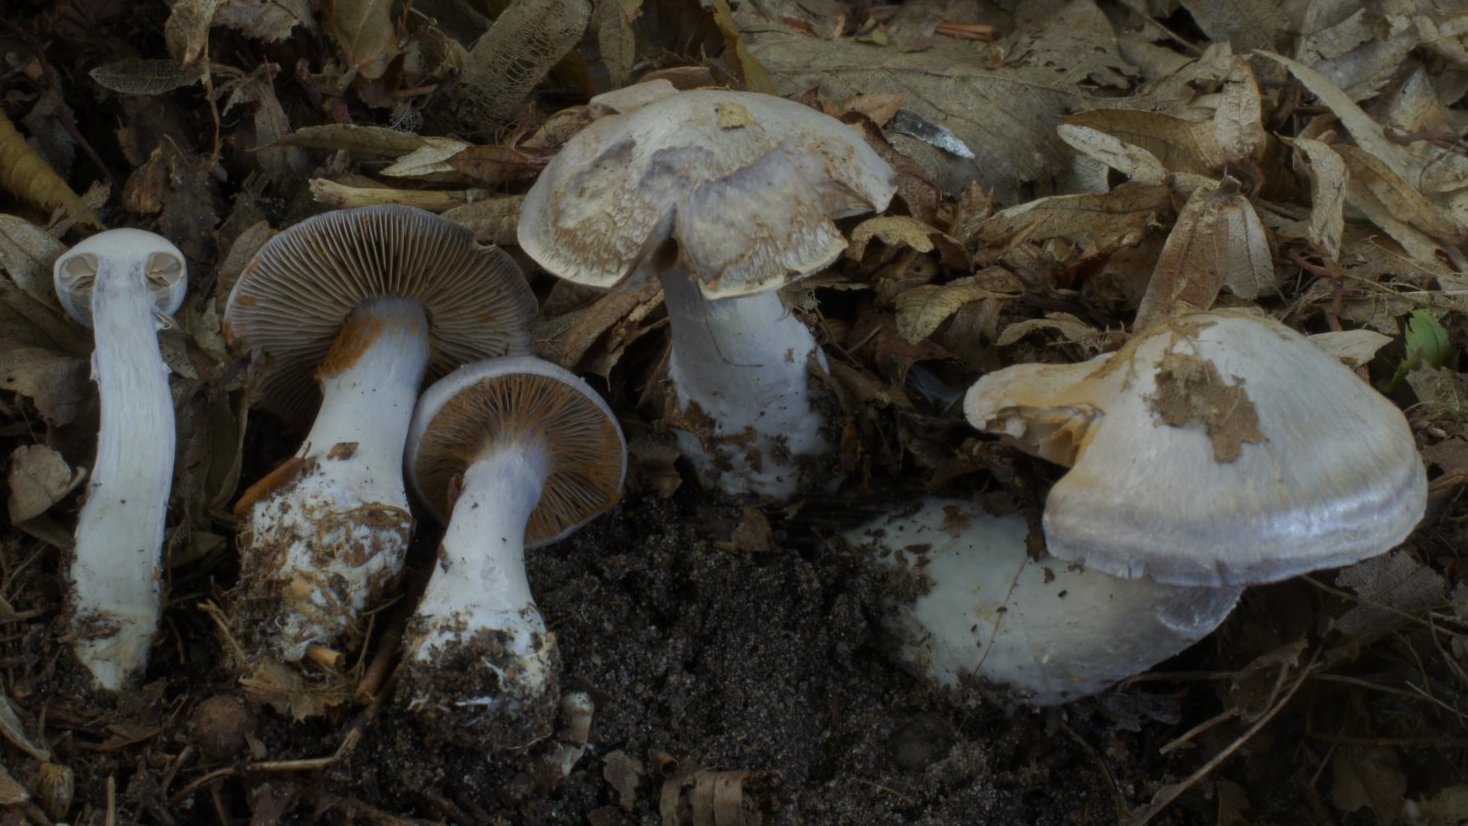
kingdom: Fungi
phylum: Basidiomycota
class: Agaricomycetes
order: Agaricales
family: Cortinariaceae
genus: Cortinarius
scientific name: Cortinarius alboviolaceus
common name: lysviolet slørhat
